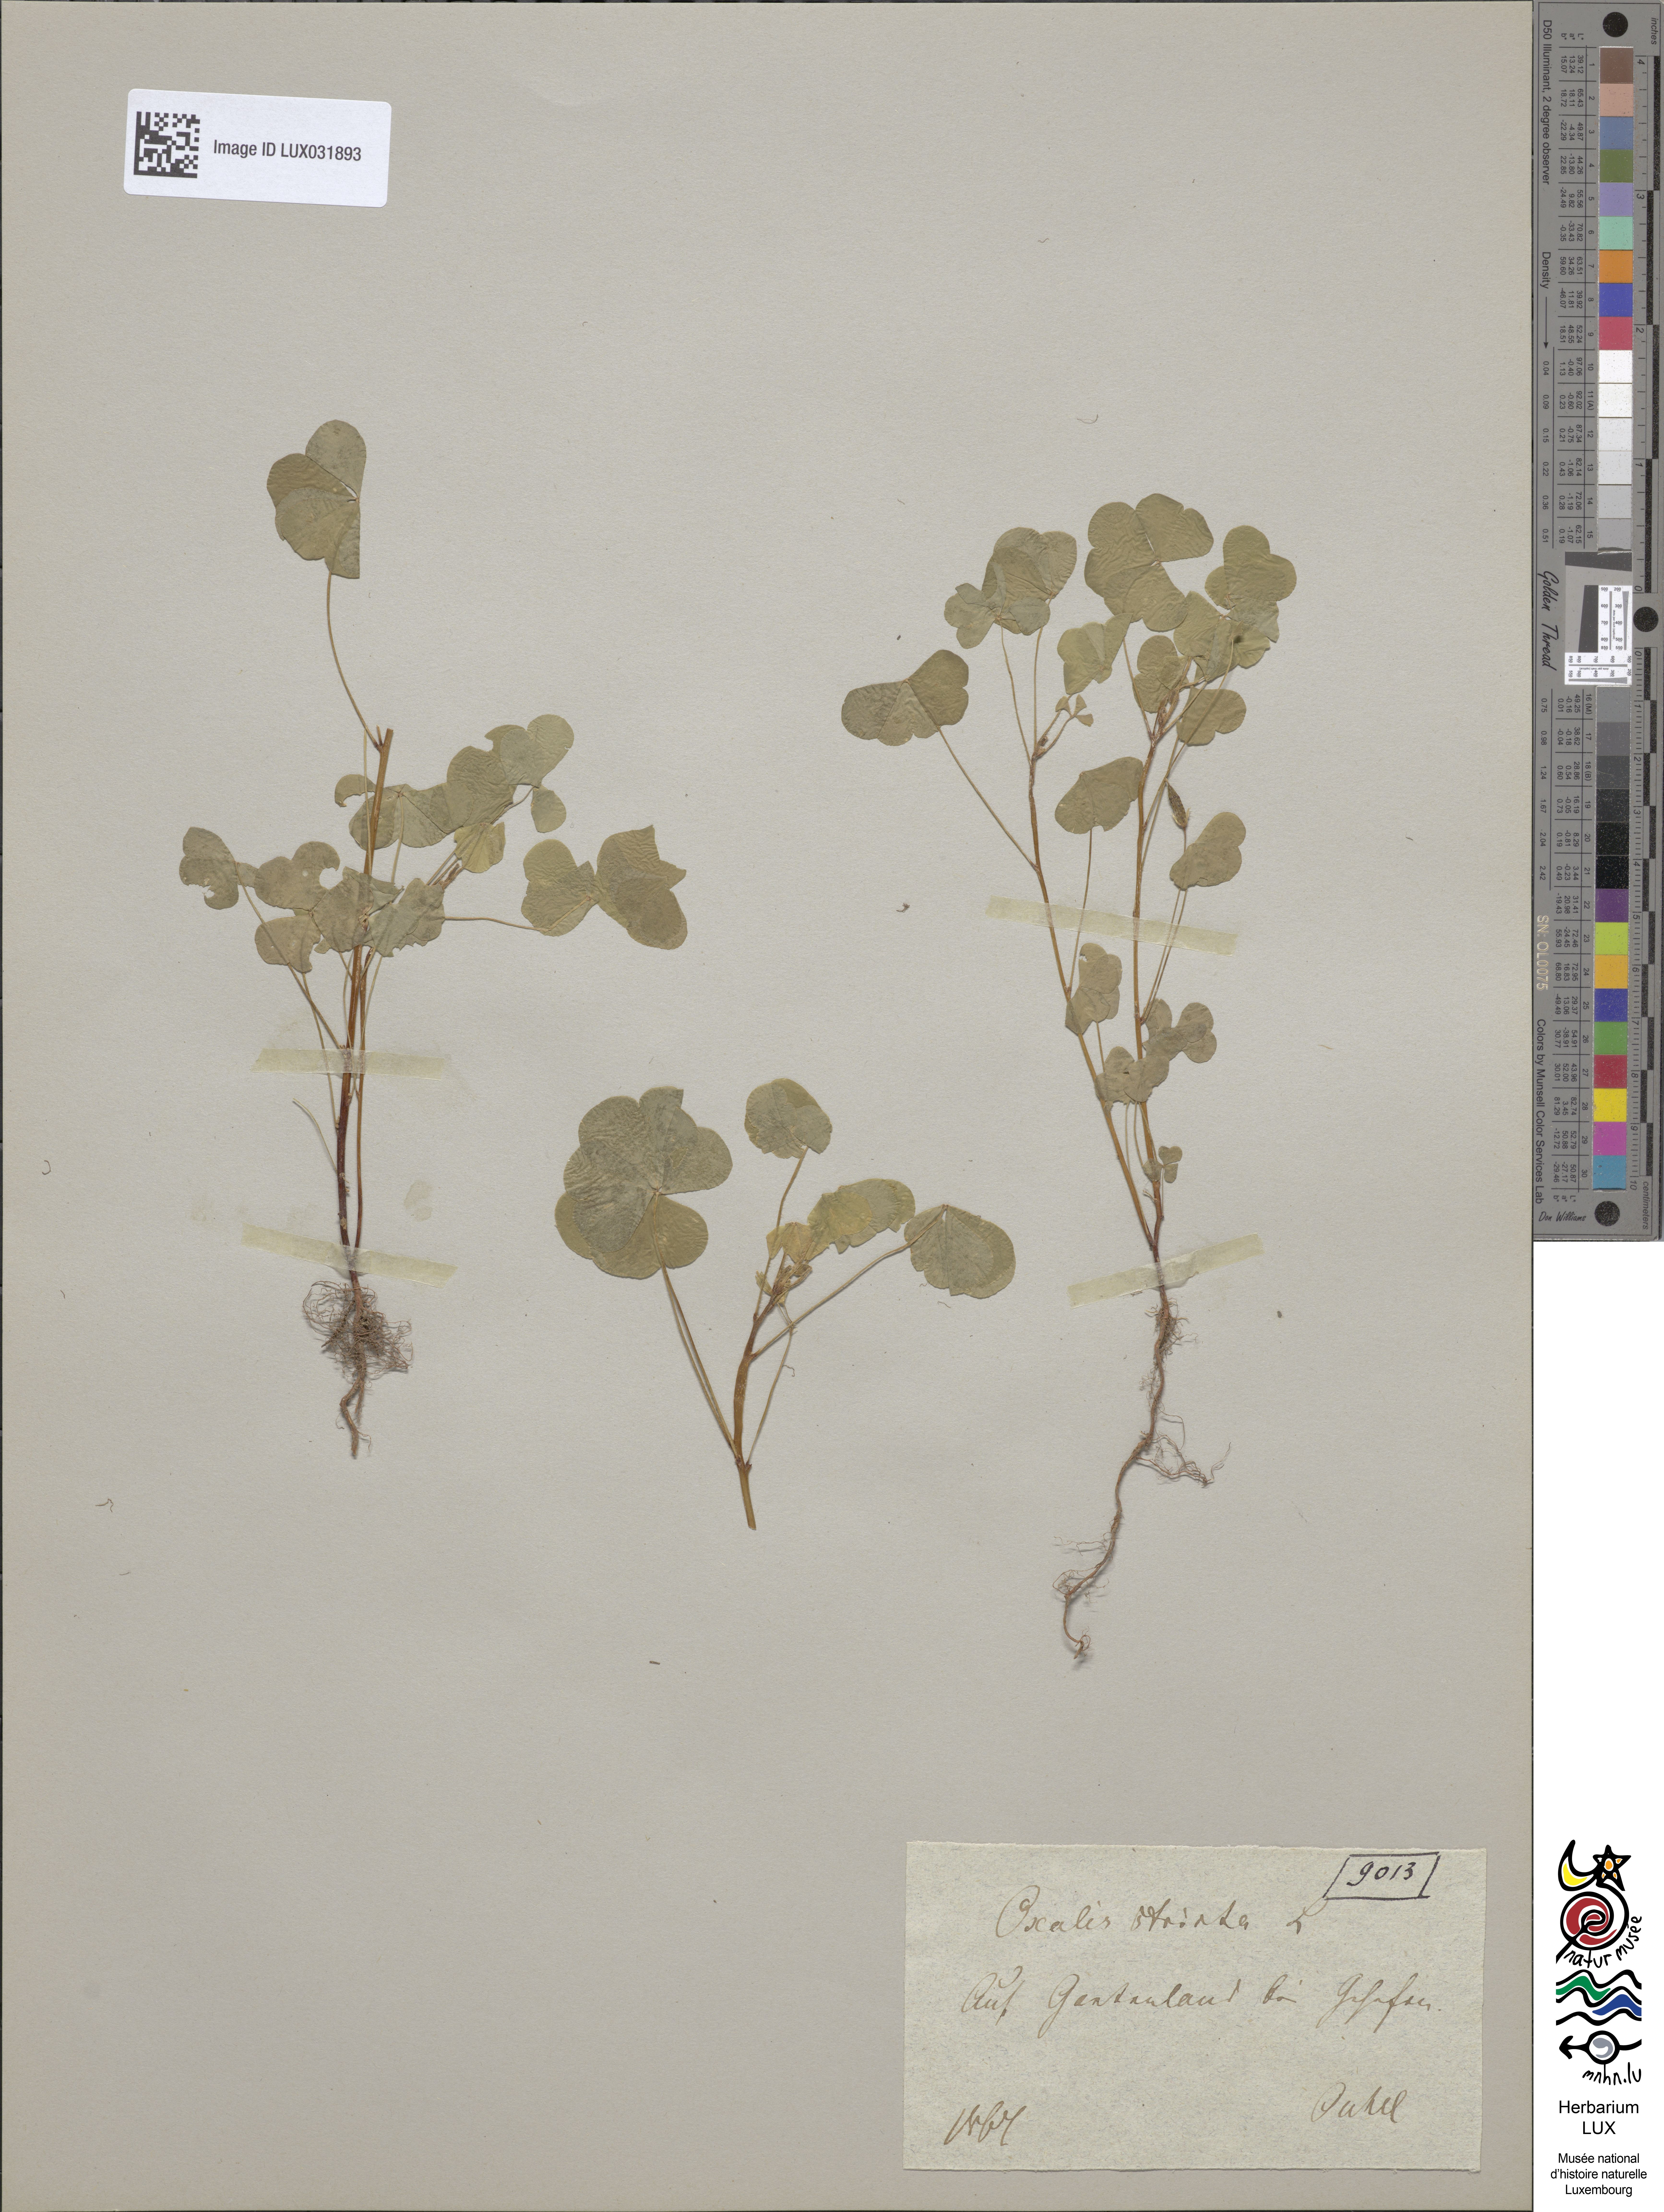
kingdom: Plantae
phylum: Tracheophyta
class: Magnoliopsida
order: Oxalidales
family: Oxalidaceae
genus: Oxalis
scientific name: Oxalis stricta
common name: Upright yellow-sorrel
